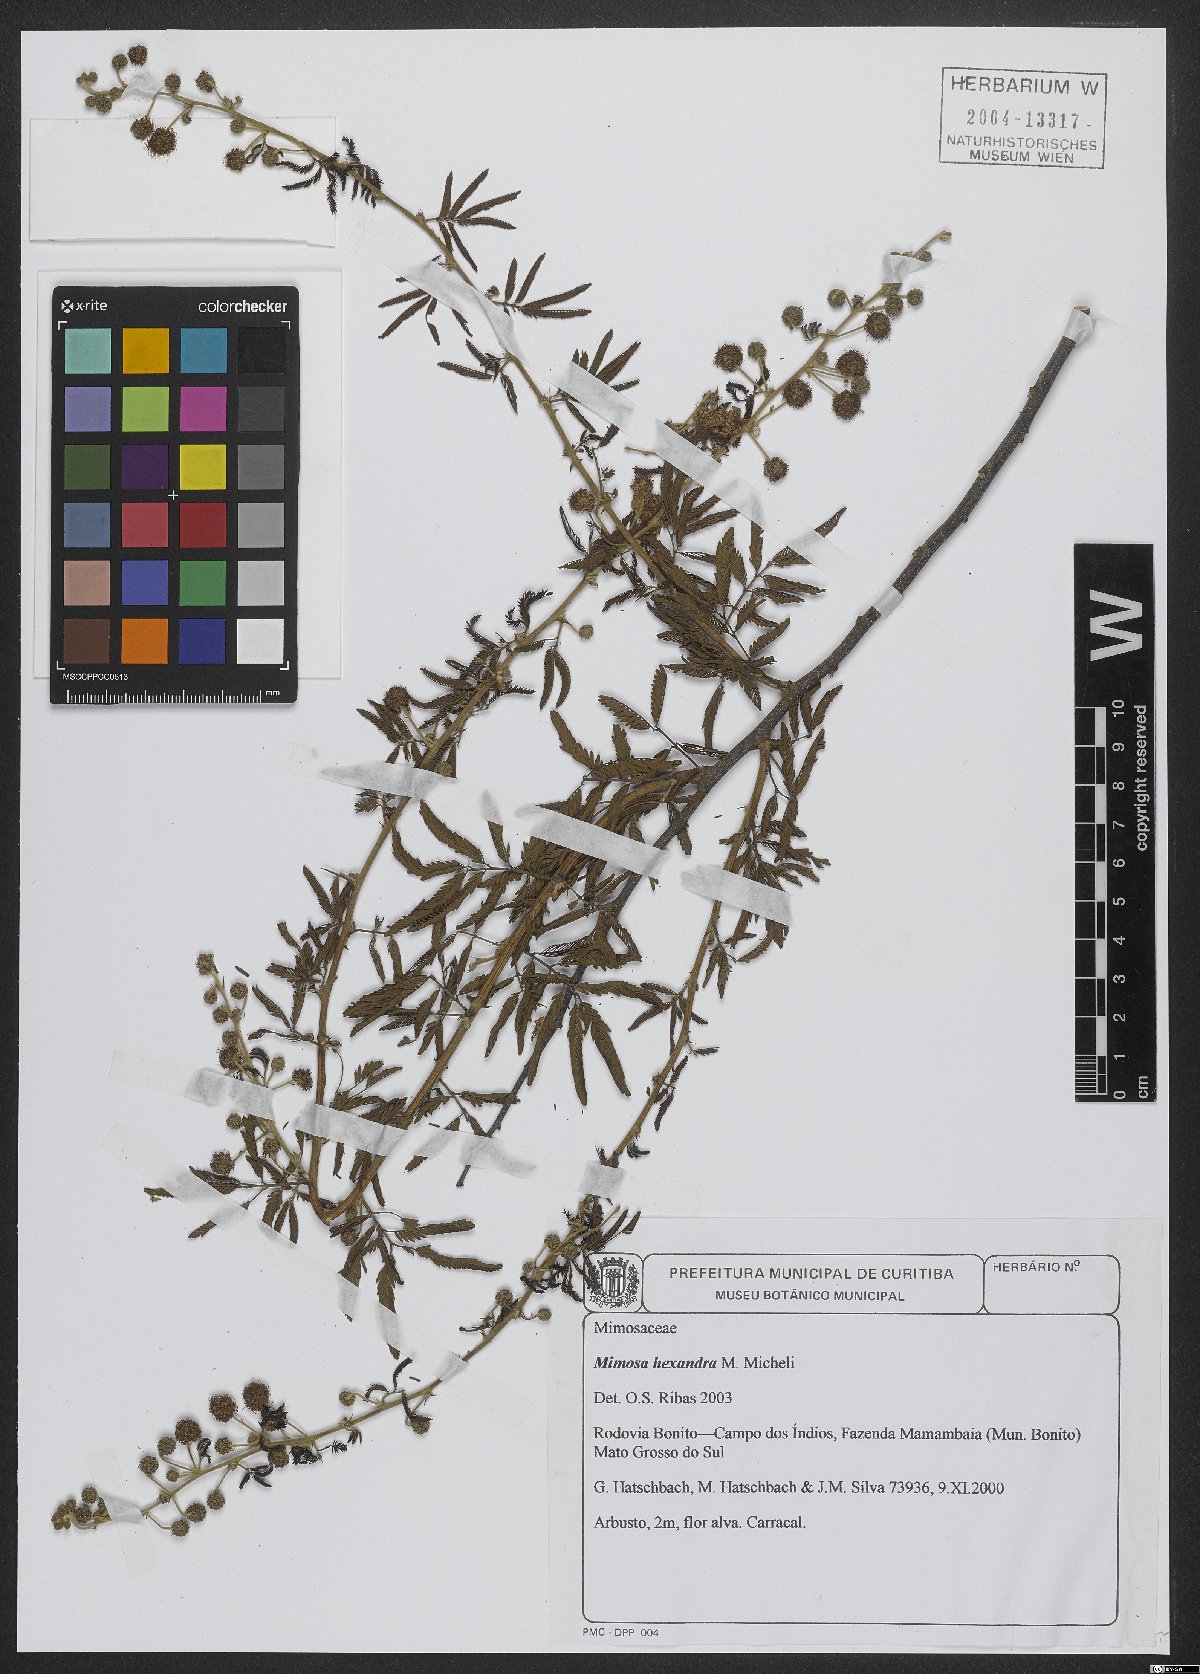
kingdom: Plantae
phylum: Tracheophyta
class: Magnoliopsida
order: Fabales
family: Fabaceae
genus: Mimosa
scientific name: Mimosa hexandra
